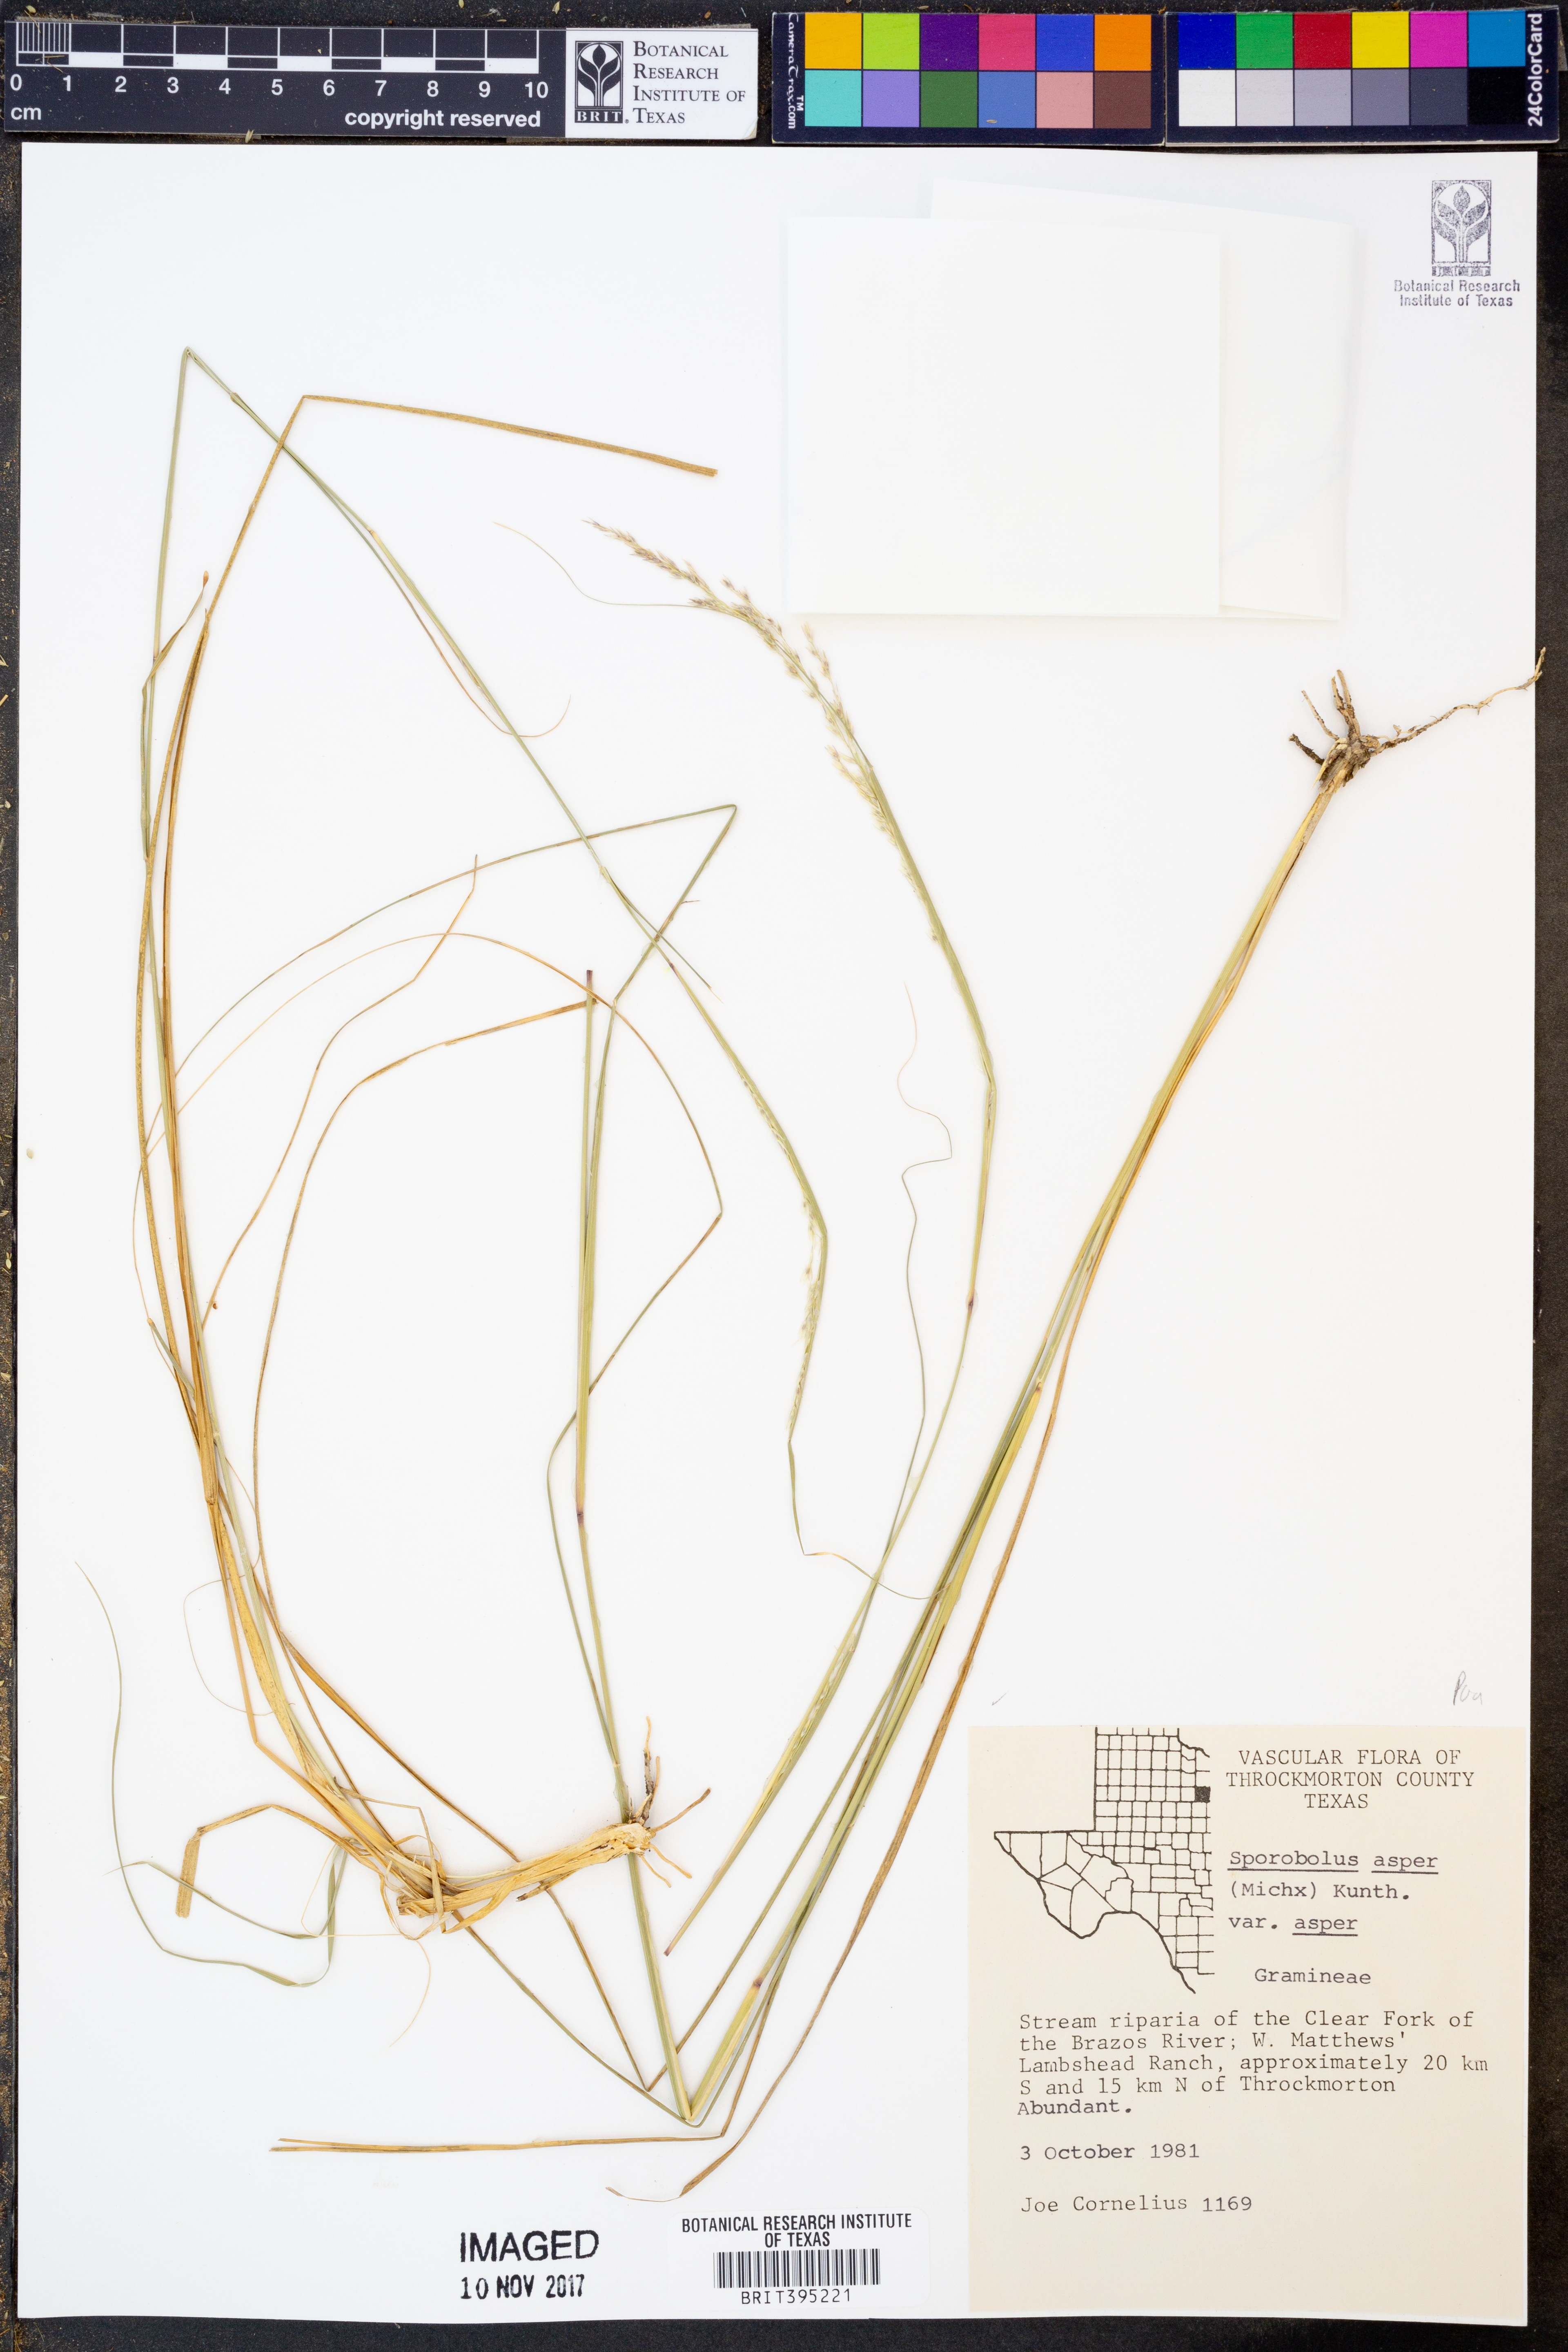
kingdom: Plantae
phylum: Tracheophyta
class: Liliopsida
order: Poales
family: Poaceae
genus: Sporobolus
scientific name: Sporobolus compositus
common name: Rough dropseed
